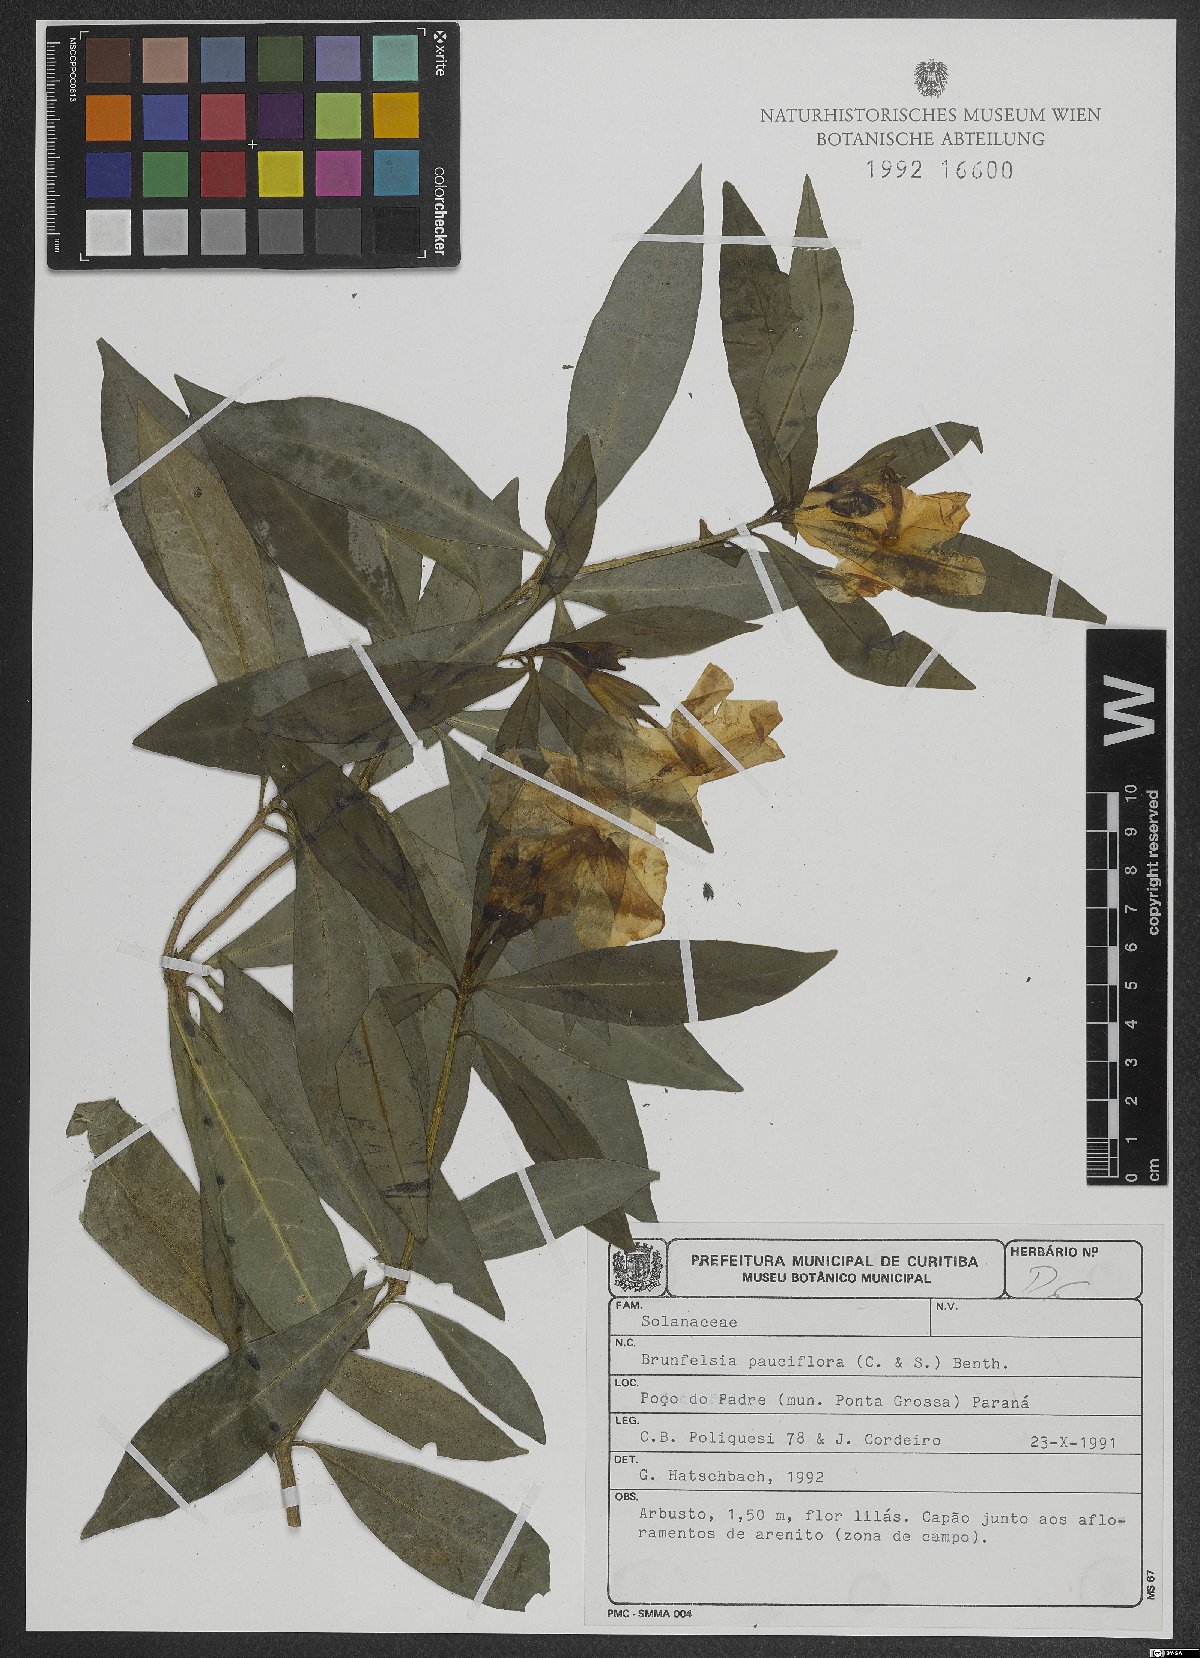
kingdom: Plantae
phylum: Tracheophyta
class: Magnoliopsida
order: Solanales
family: Solanaceae
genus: Brunfelsia
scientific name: Brunfelsia pauciflora
